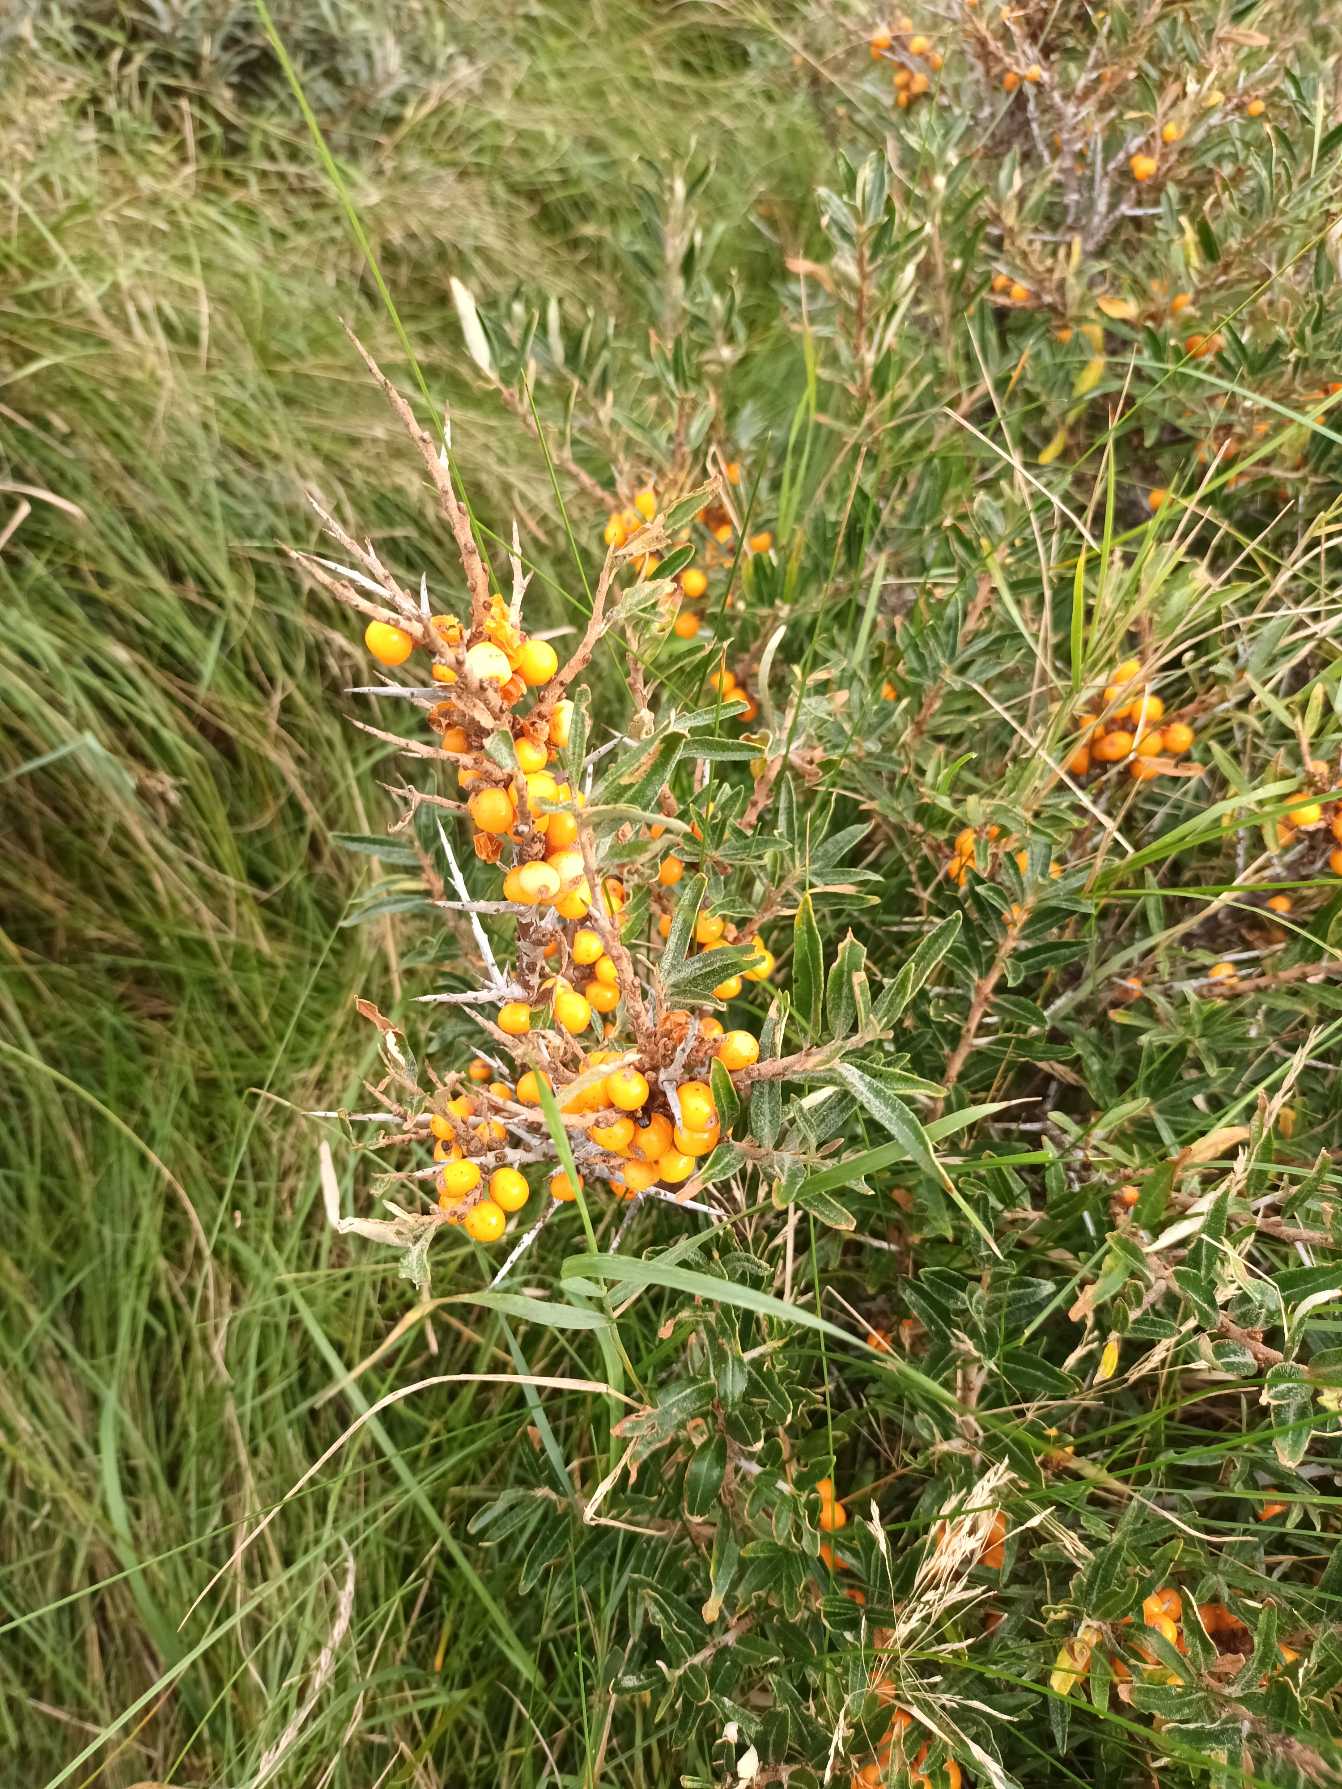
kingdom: Plantae
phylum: Tracheophyta
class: Magnoliopsida
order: Rosales
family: Elaeagnaceae
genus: Hippophae
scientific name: Hippophae rhamnoides
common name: Havtorn
